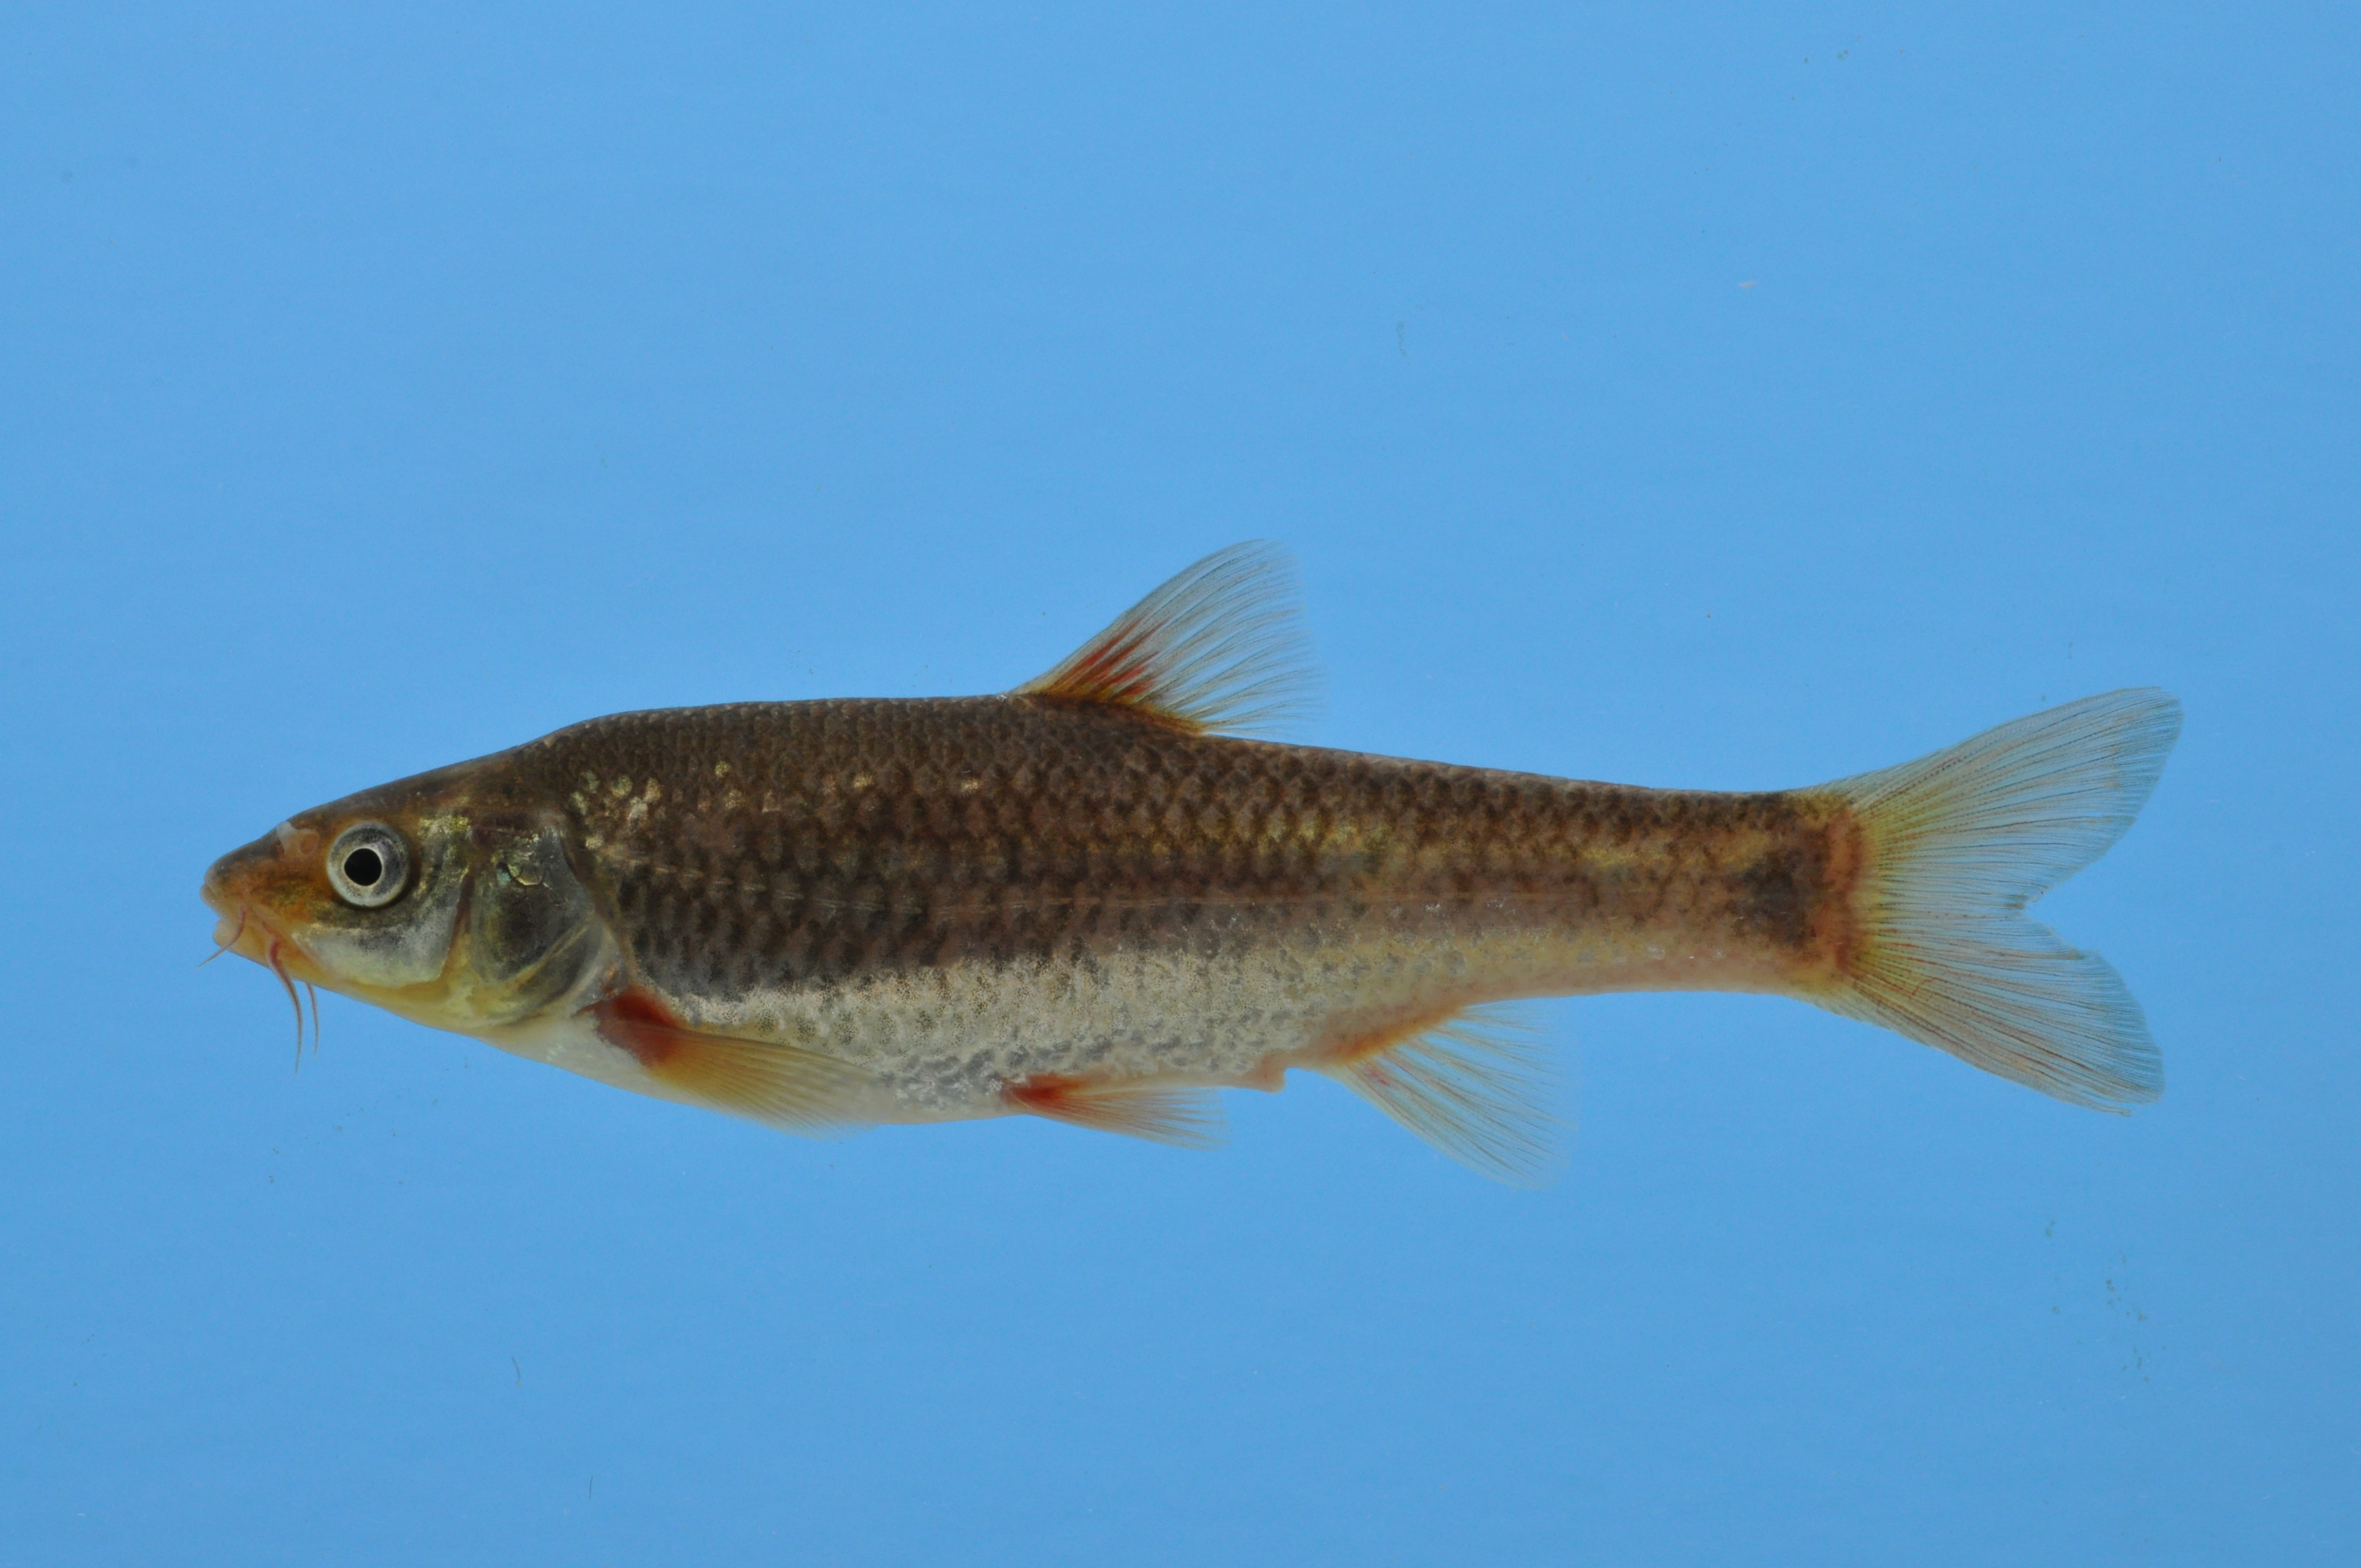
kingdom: Animalia
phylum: Chordata
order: Cypriniformes
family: Cyprinidae
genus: Pseudobarbus
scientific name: Pseudobarbus burchelli
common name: Burchell's redfin
